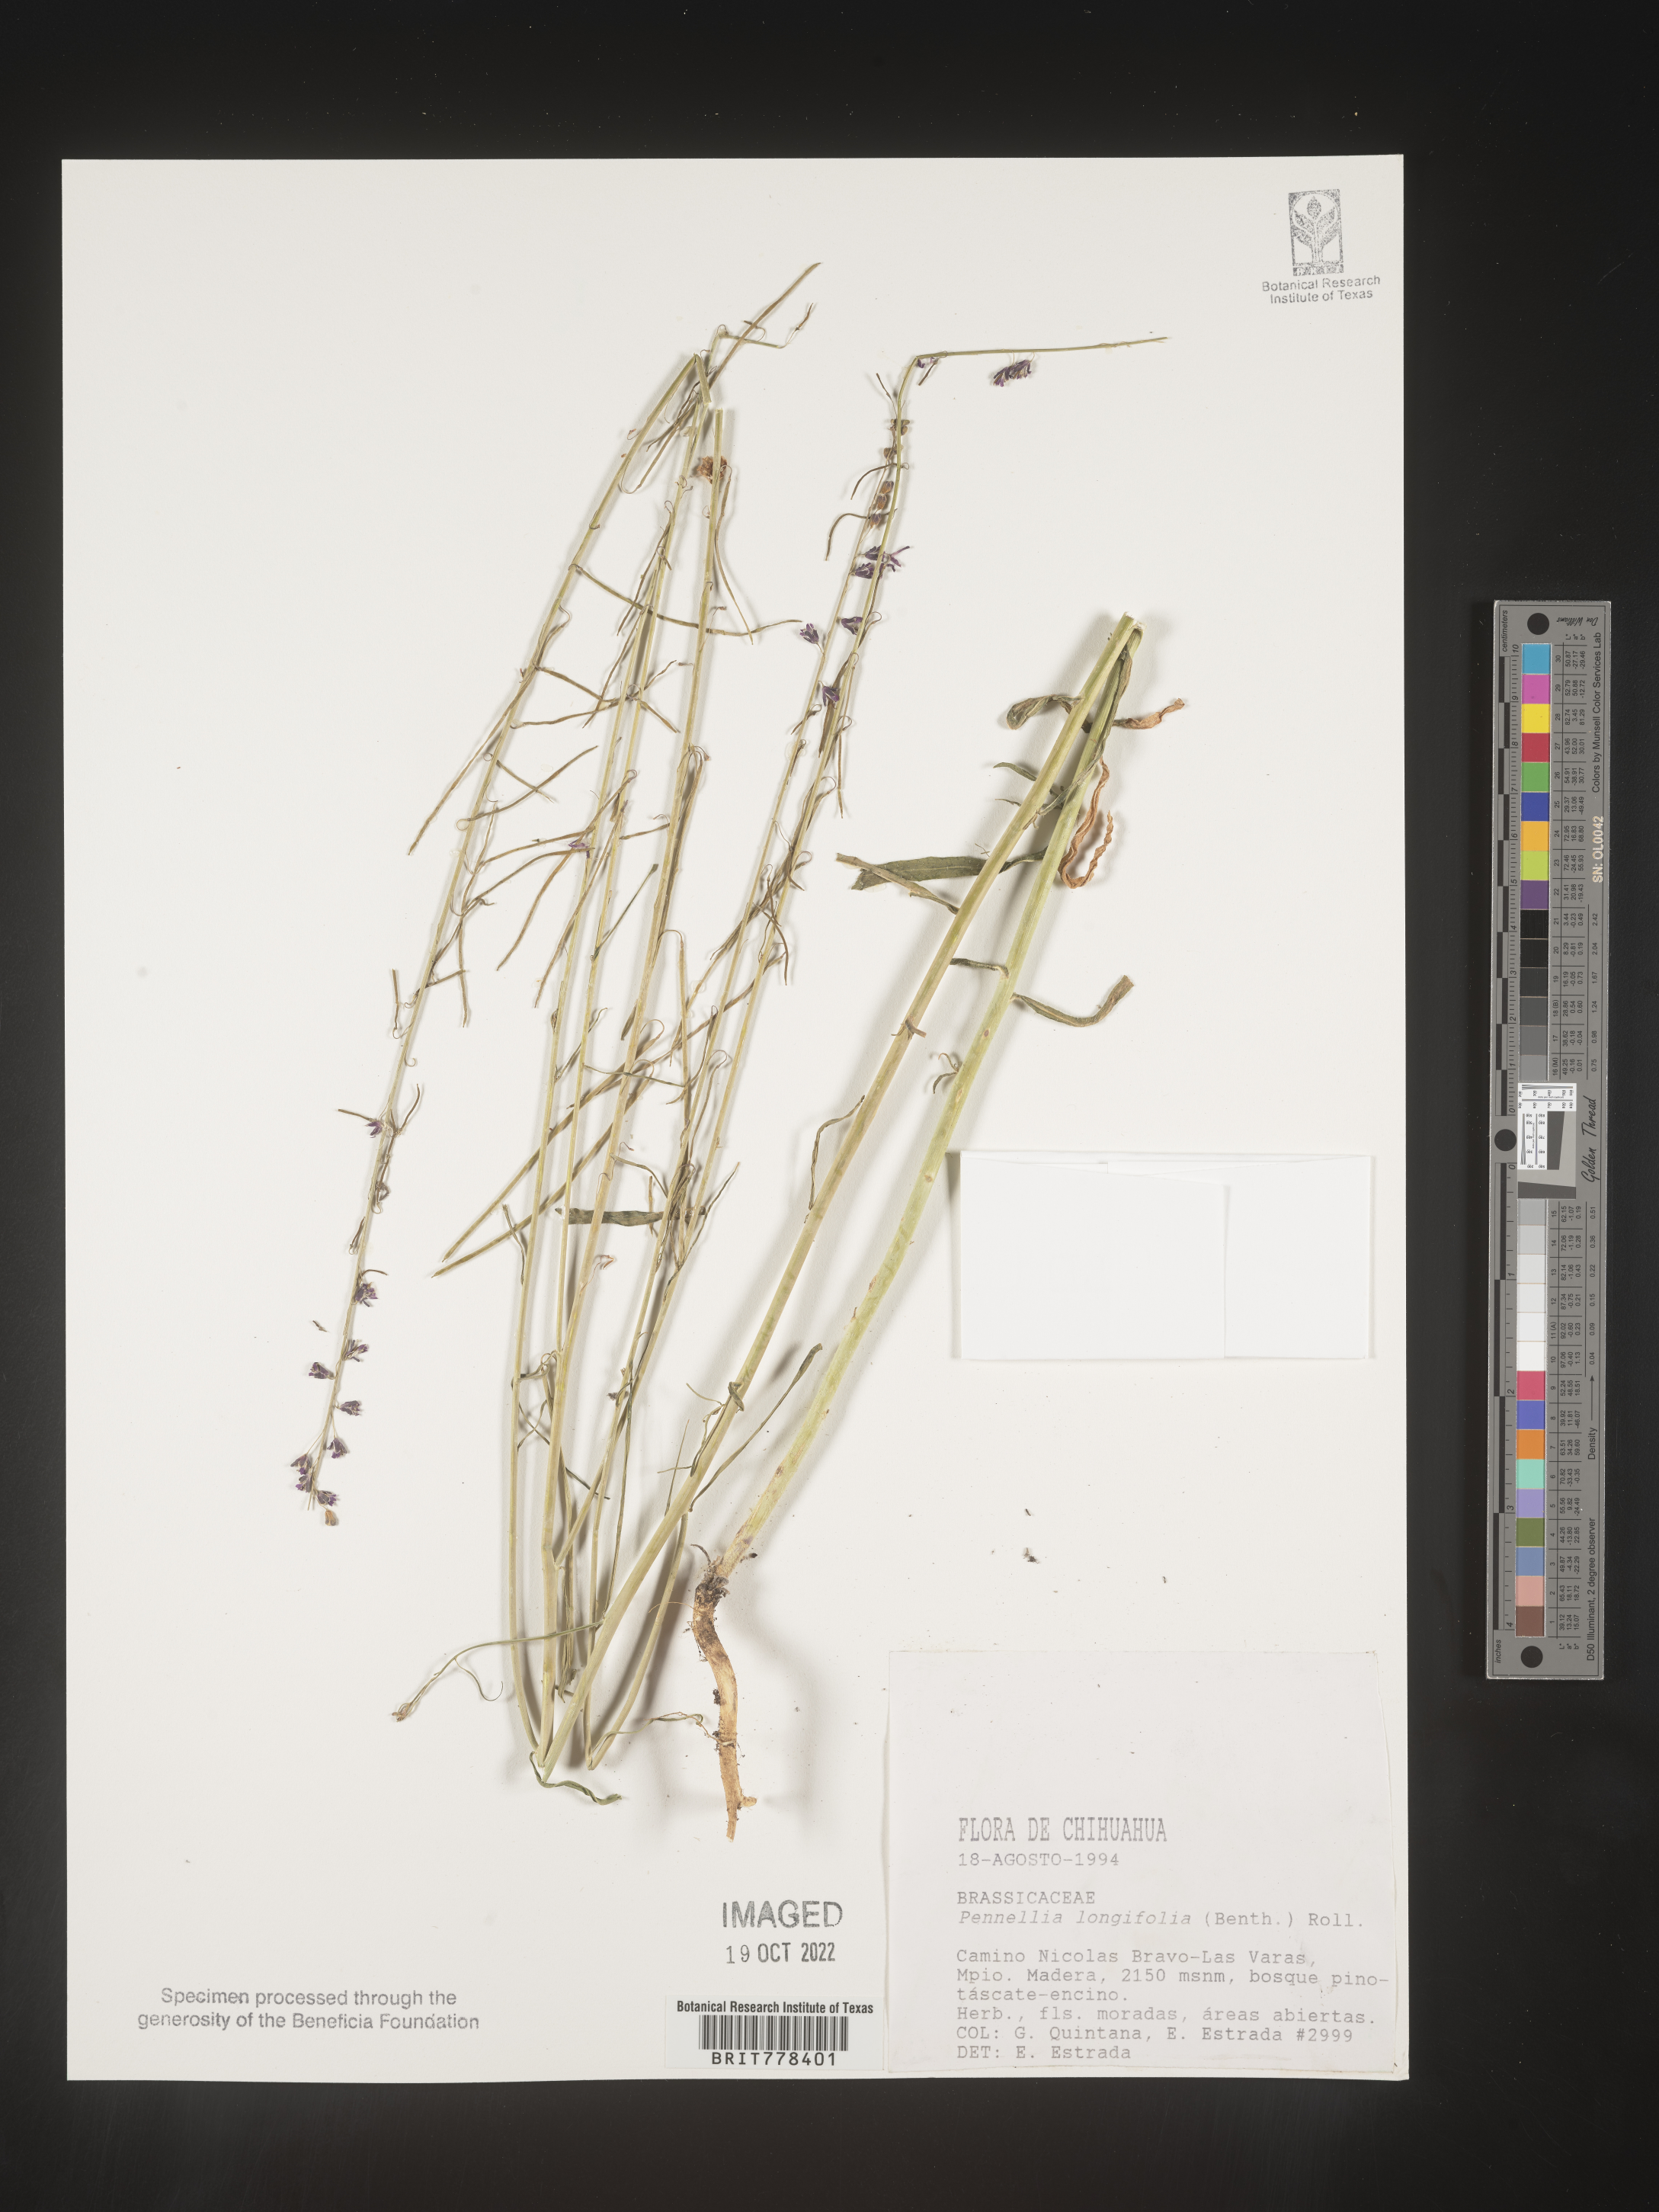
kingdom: Plantae
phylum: Tracheophyta
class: Magnoliopsida
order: Brassicales
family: Brassicaceae
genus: Pennellia
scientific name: Pennellia
